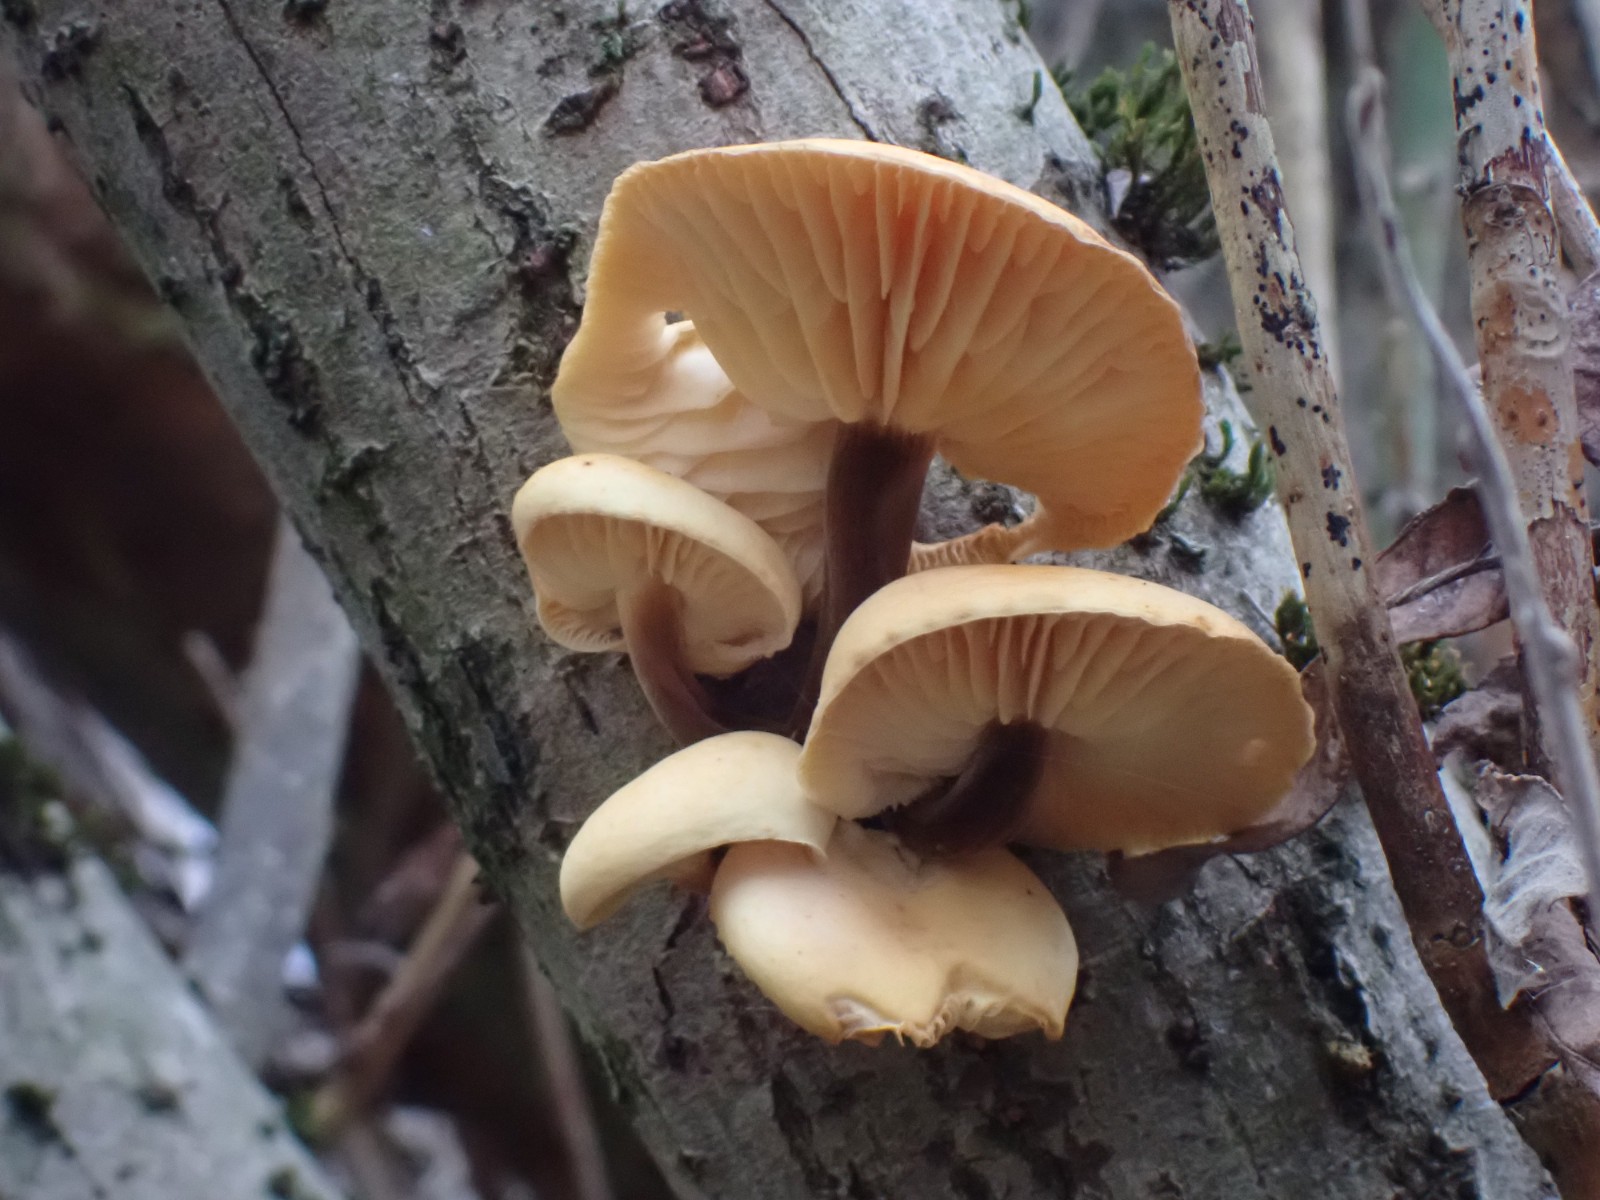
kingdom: Fungi
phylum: Basidiomycota
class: Agaricomycetes
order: Agaricales
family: Physalacriaceae
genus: Flammulina
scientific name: Flammulina
